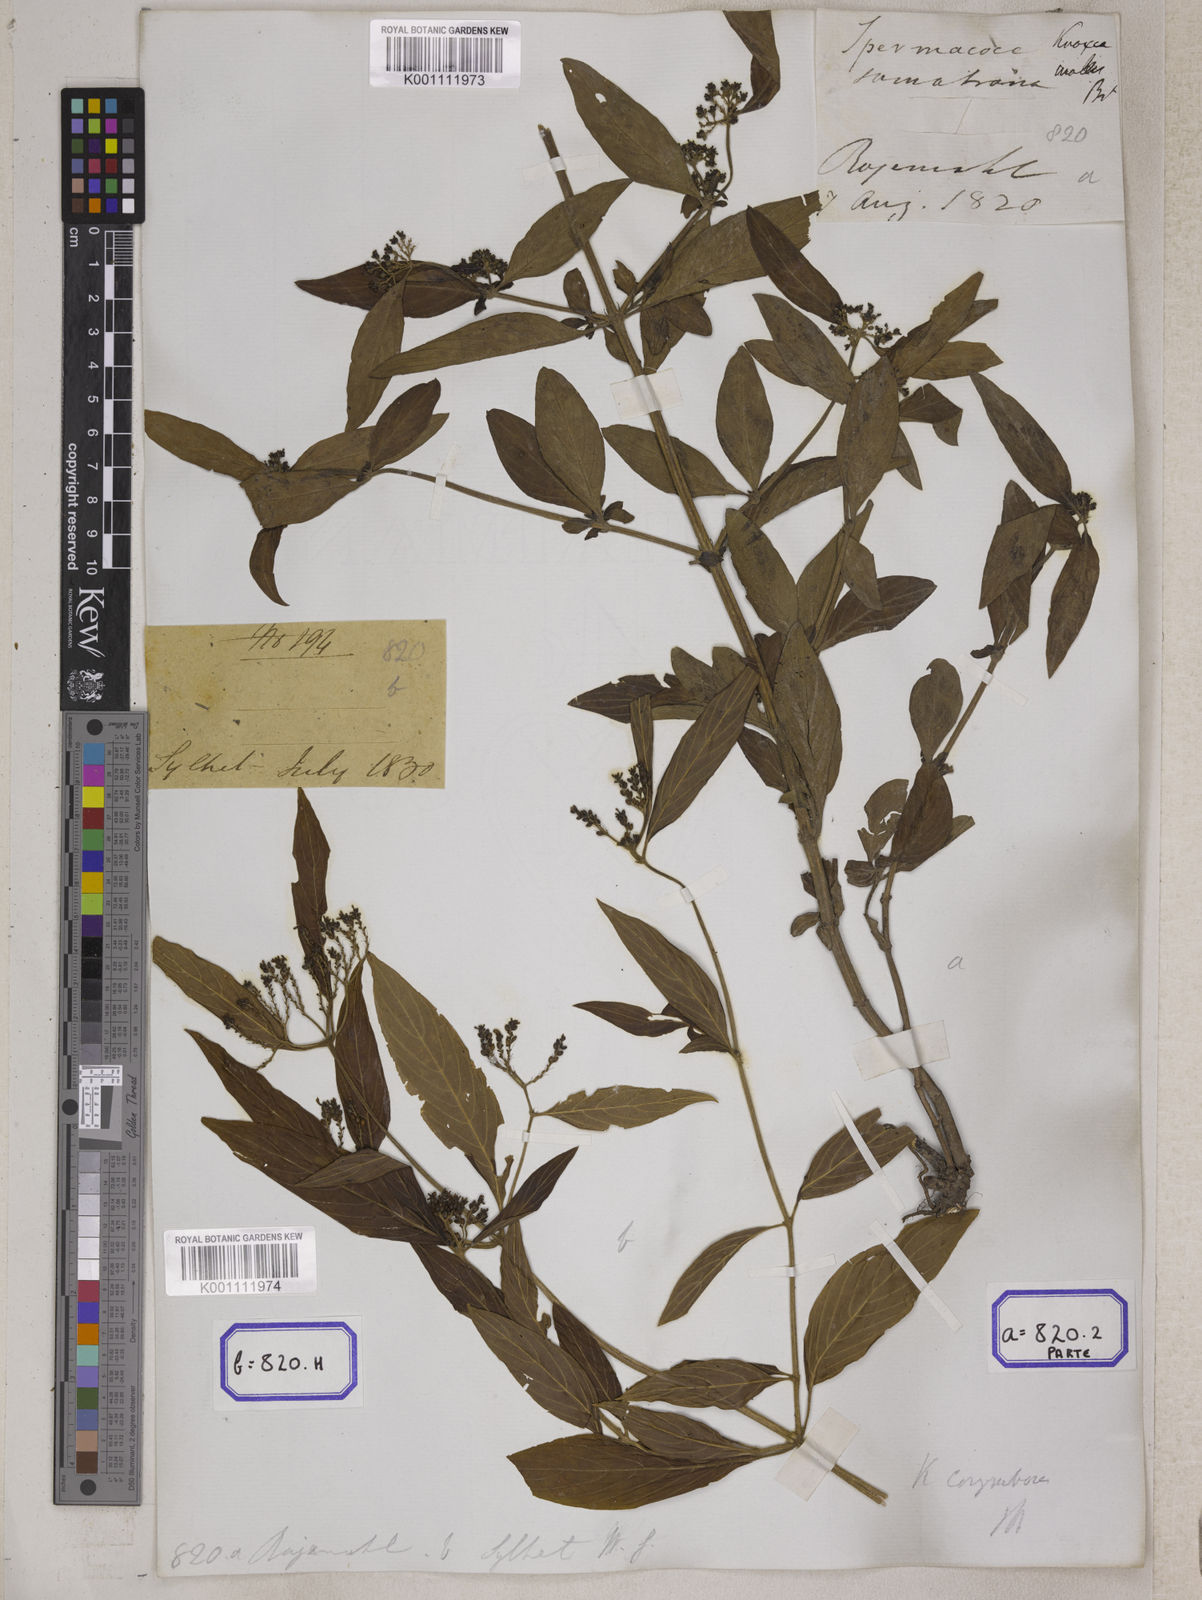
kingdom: Plantae
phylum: Tracheophyta
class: Magnoliopsida
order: Gentianales
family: Rubiaceae
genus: Knoxia
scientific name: Knoxia
